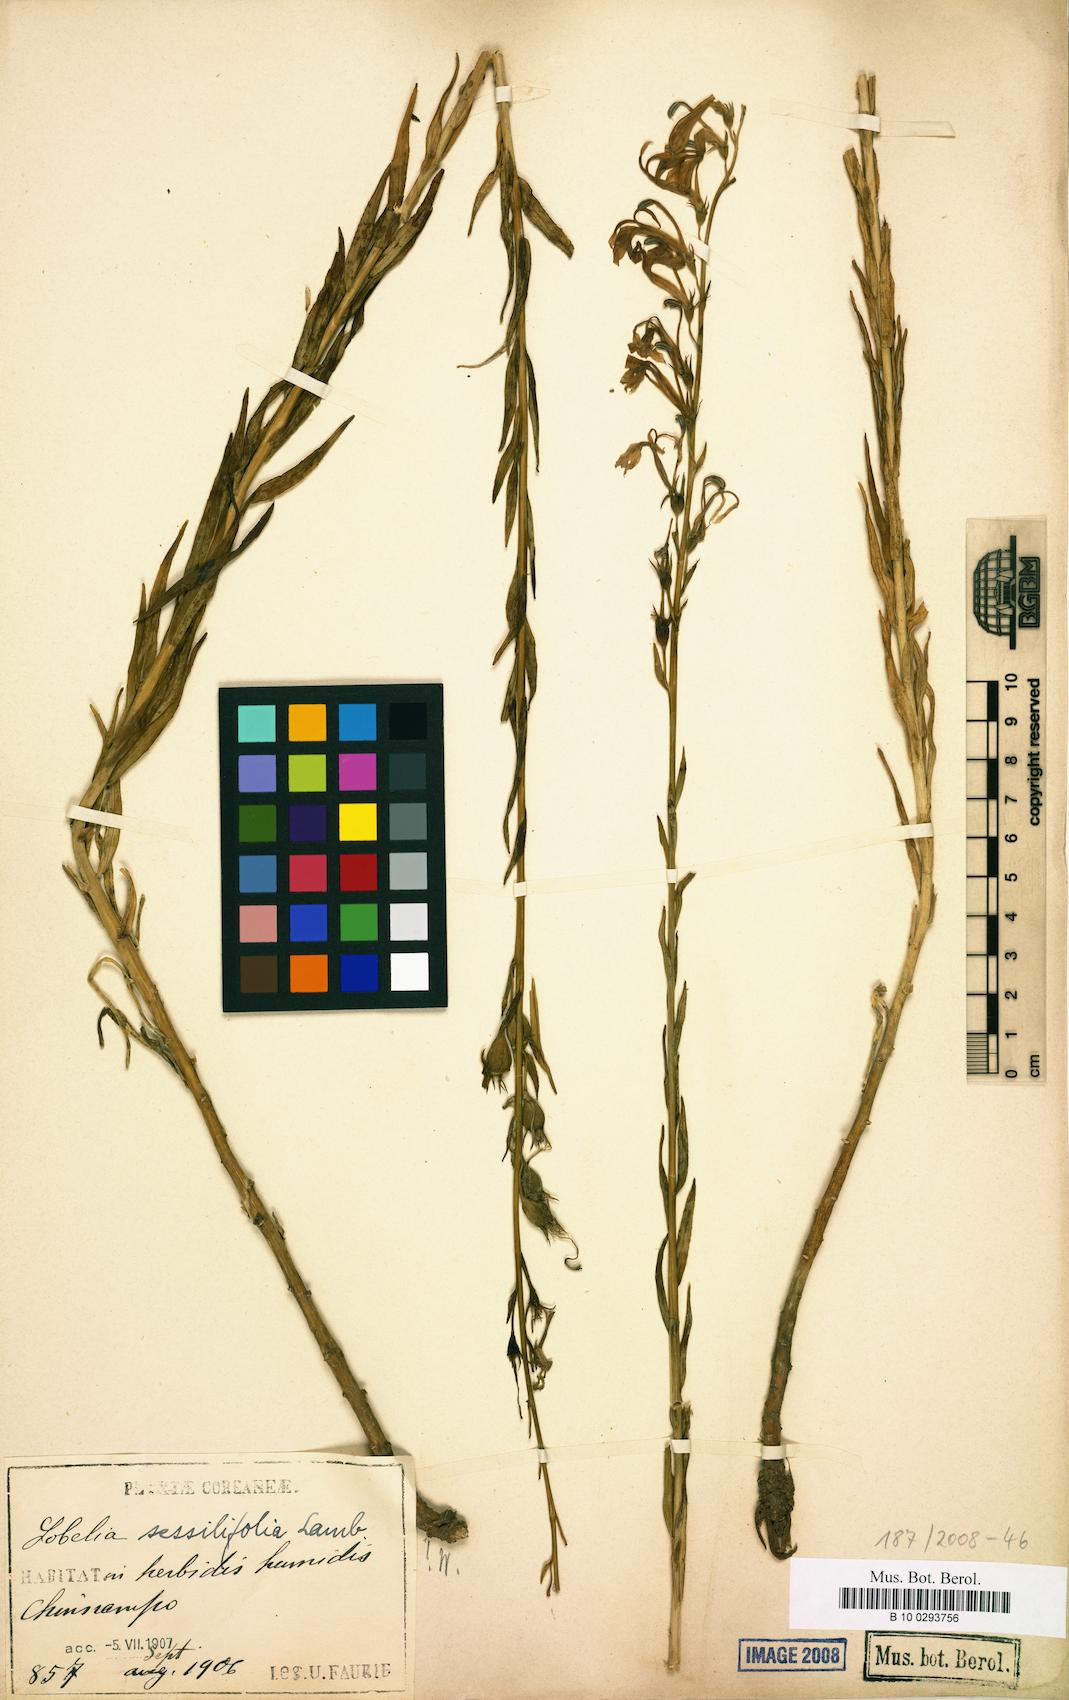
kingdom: Plantae
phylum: Tracheophyta
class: Magnoliopsida
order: Asterales
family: Campanulaceae
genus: Lobelia
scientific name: Lobelia sessilifolia
